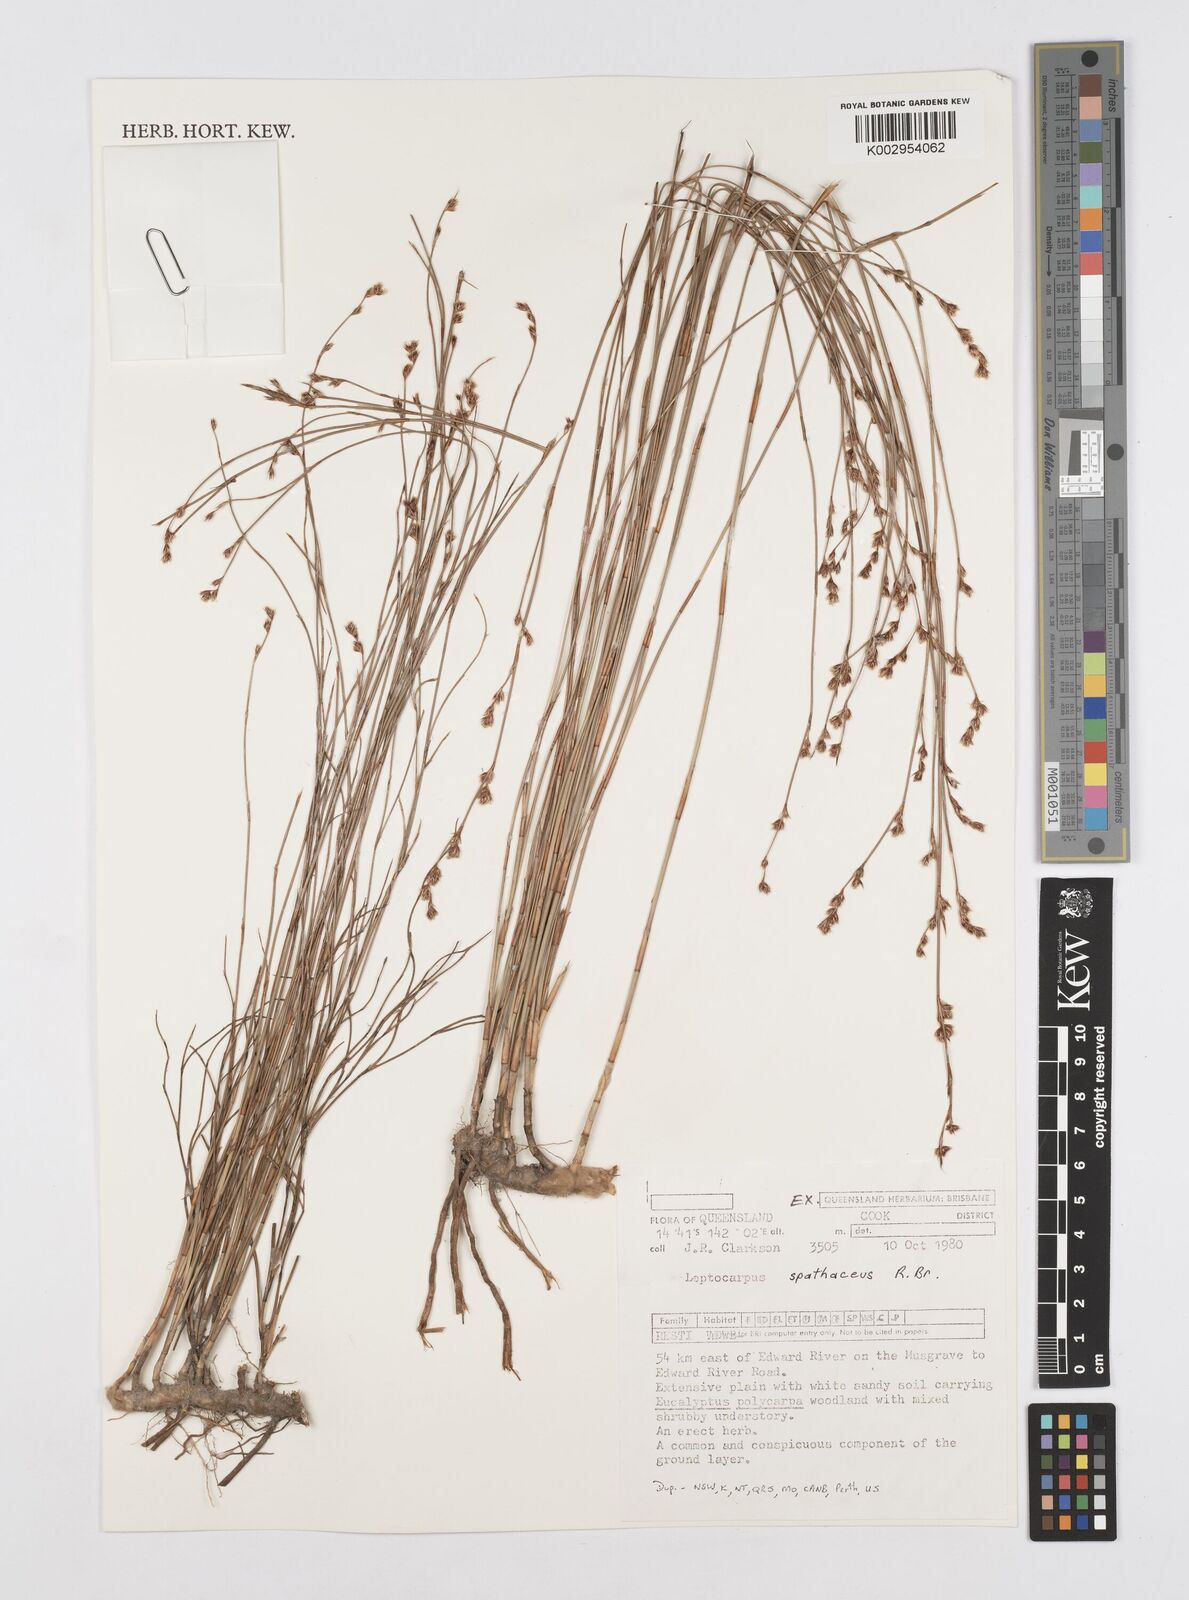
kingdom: Plantae
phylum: Tracheophyta
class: Liliopsida
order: Poales
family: Restionaceae
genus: Dapsilanthus
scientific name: Dapsilanthus spathaceus
